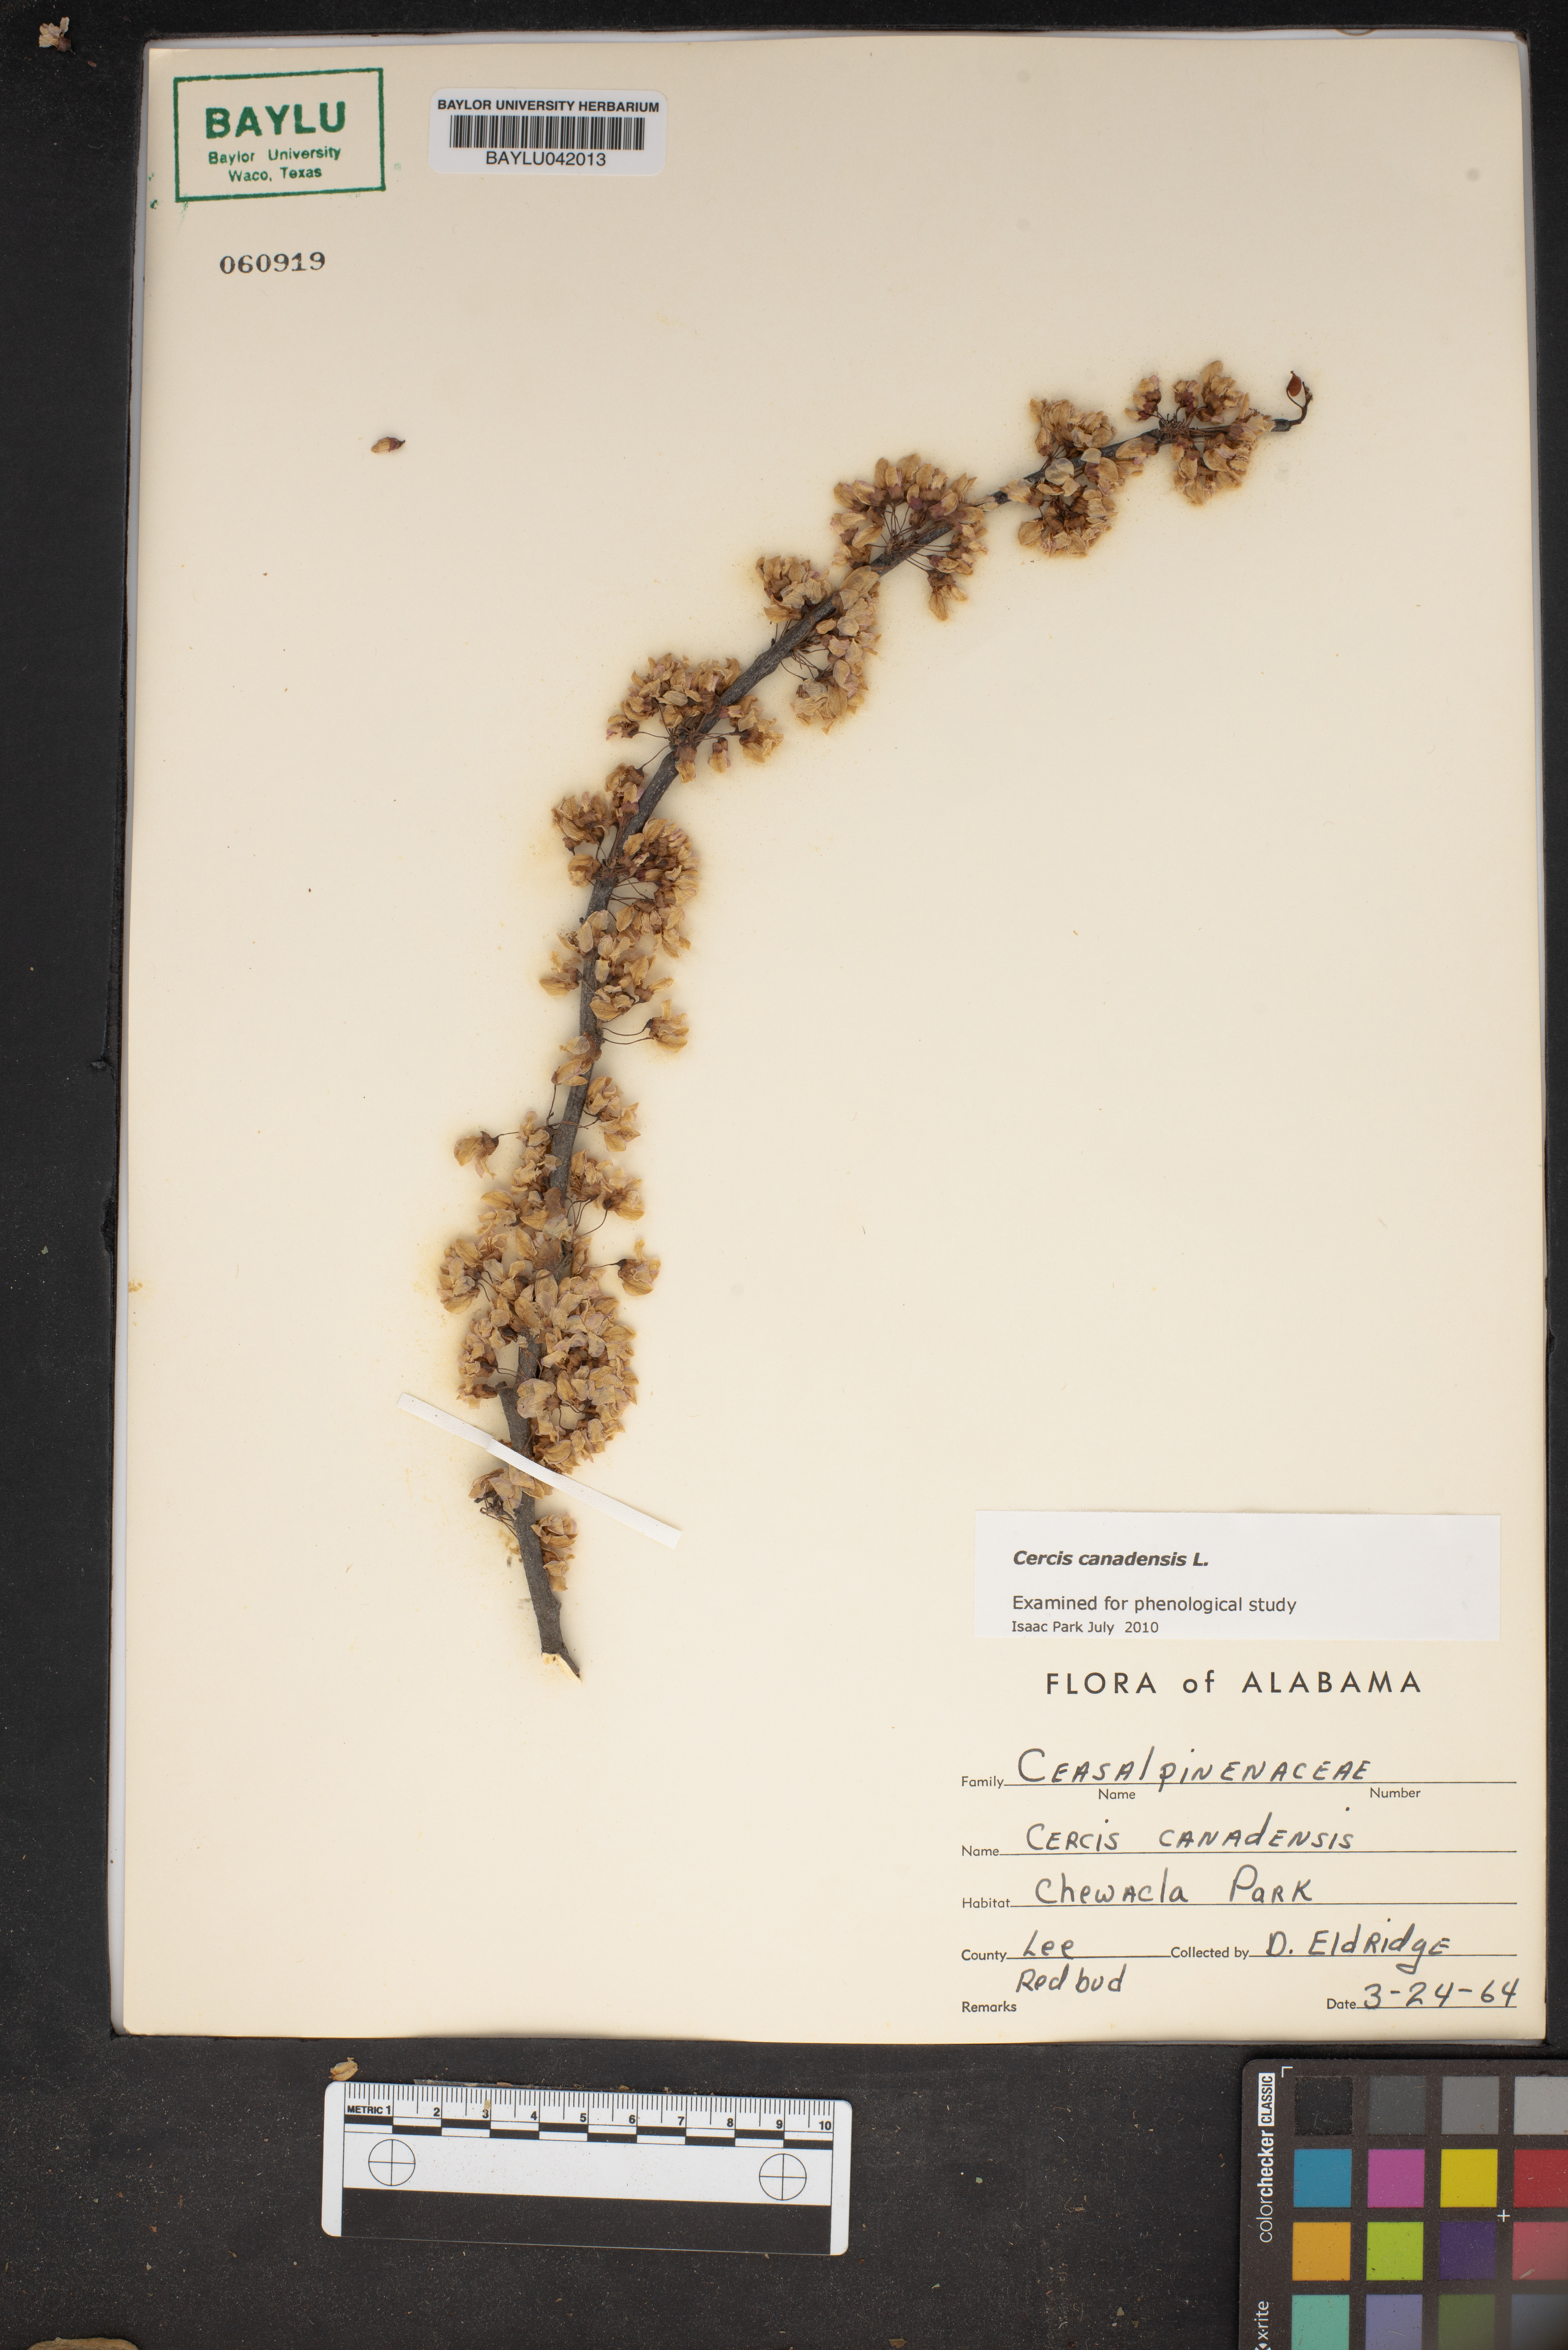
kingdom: Plantae
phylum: Tracheophyta
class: Magnoliopsida
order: Fabales
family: Fabaceae
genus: Cercis
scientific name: Cercis canadensis
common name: Eastern redbud
